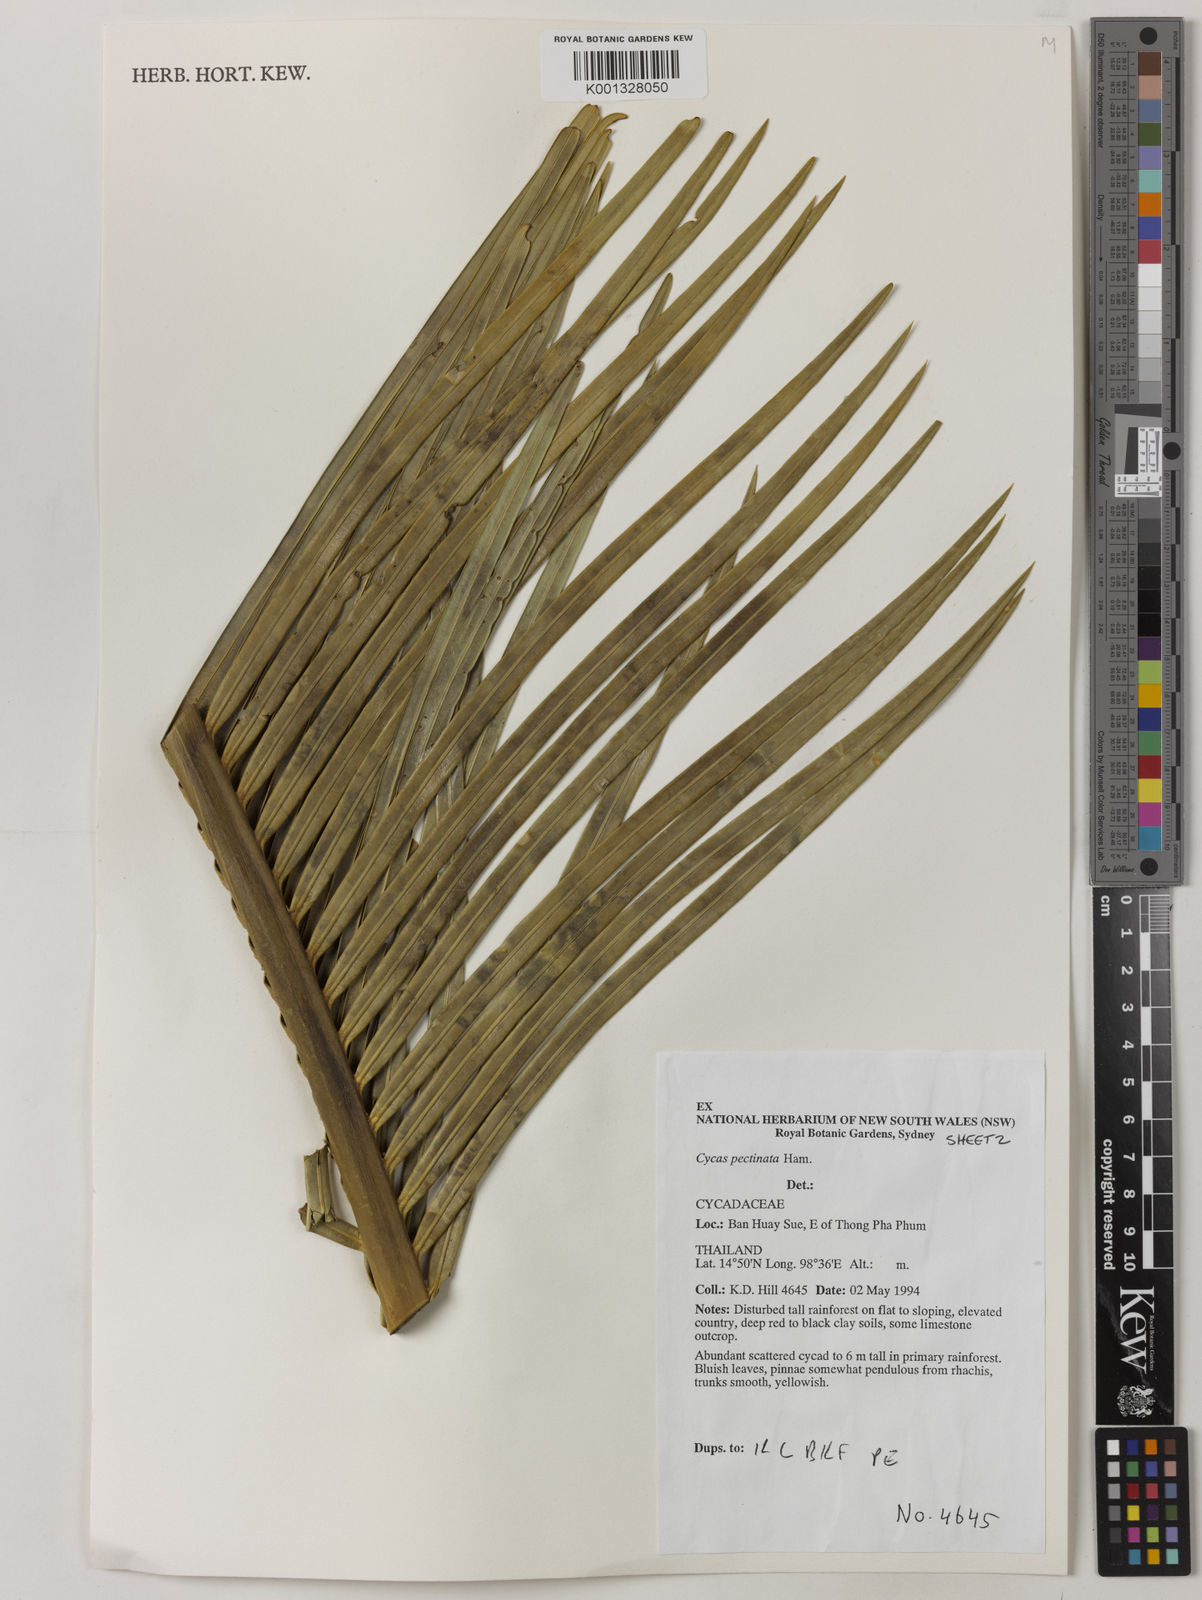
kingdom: Plantae
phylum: Tracheophyta
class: Cycadopsida
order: Cycadales
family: Cycadaceae
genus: Cycas
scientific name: Cycas pectinata
